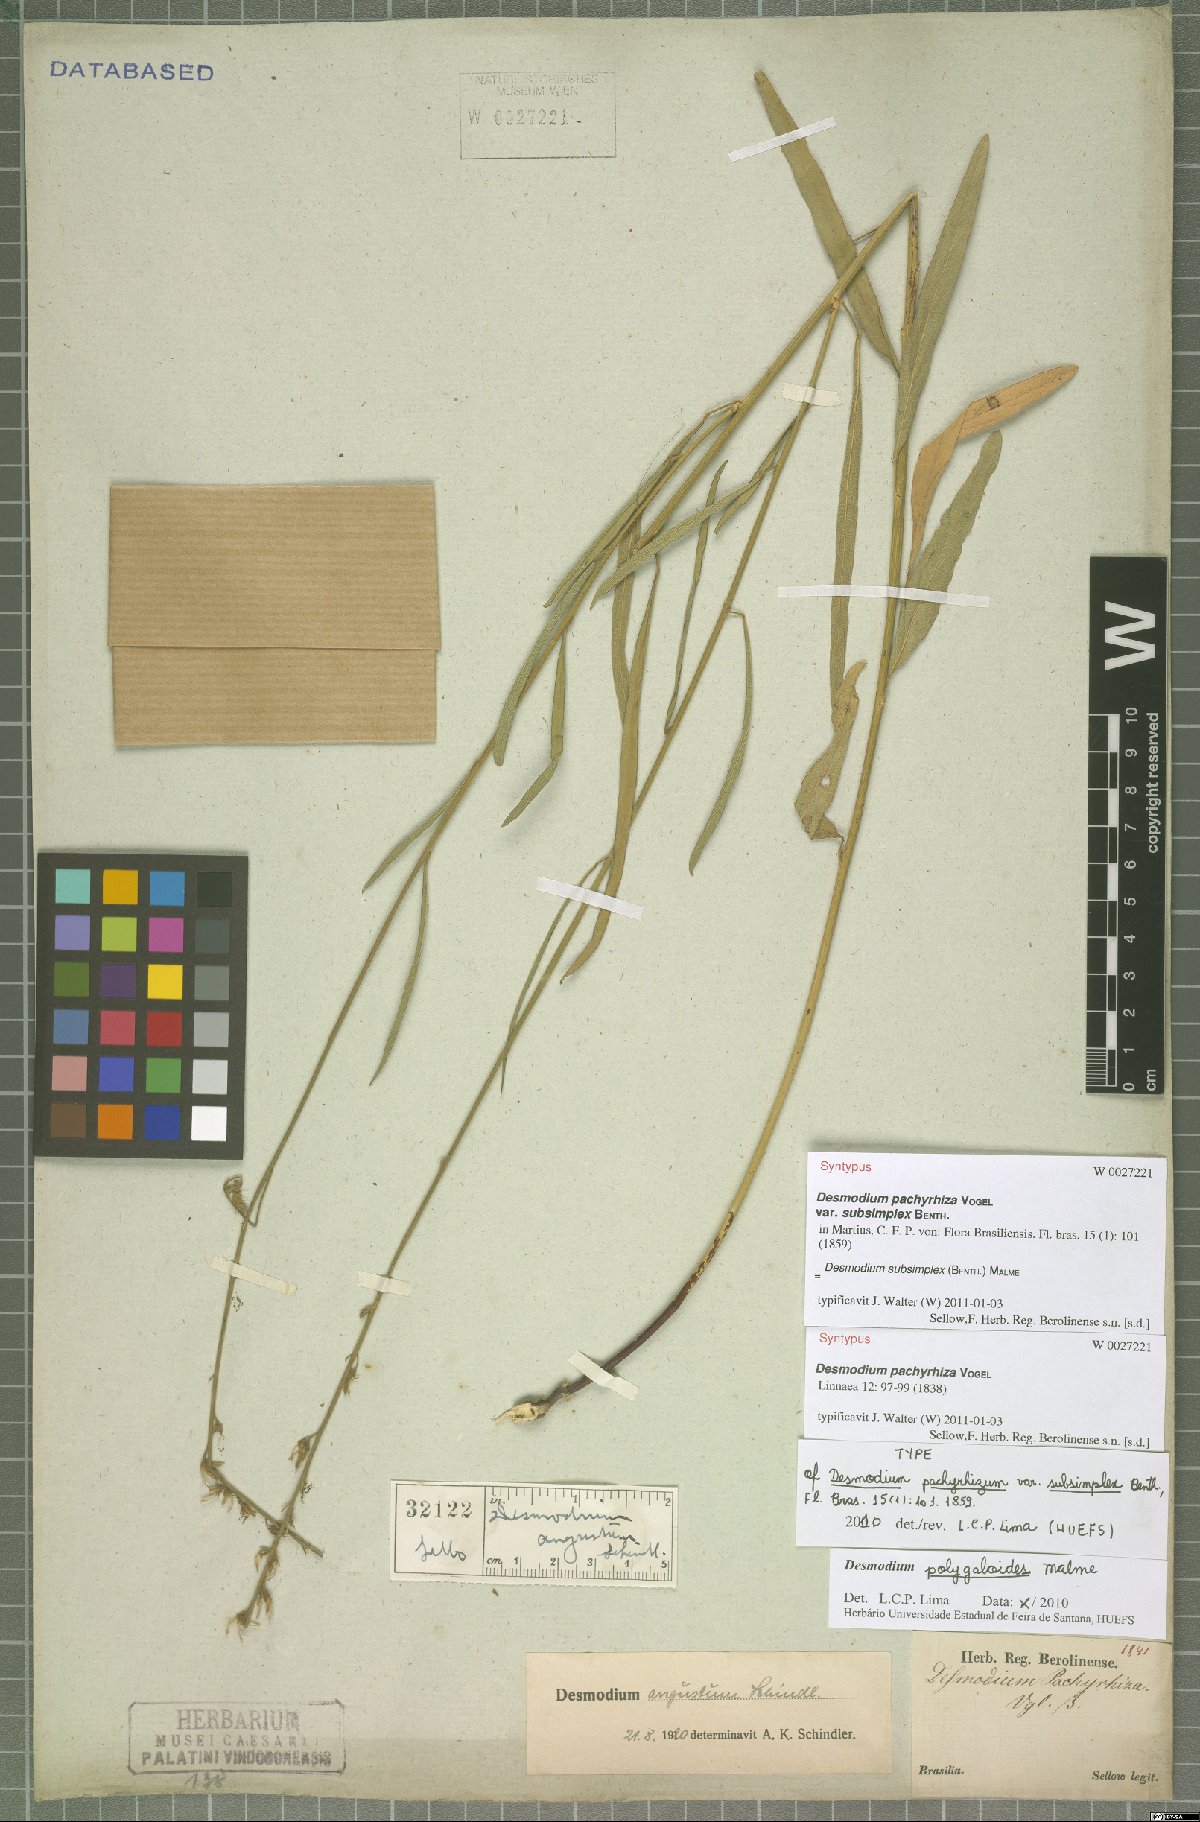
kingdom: Plantae
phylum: Tracheophyta
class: Magnoliopsida
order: Fabales
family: Fabaceae
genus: Desmodium
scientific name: Desmodium polygaloides
